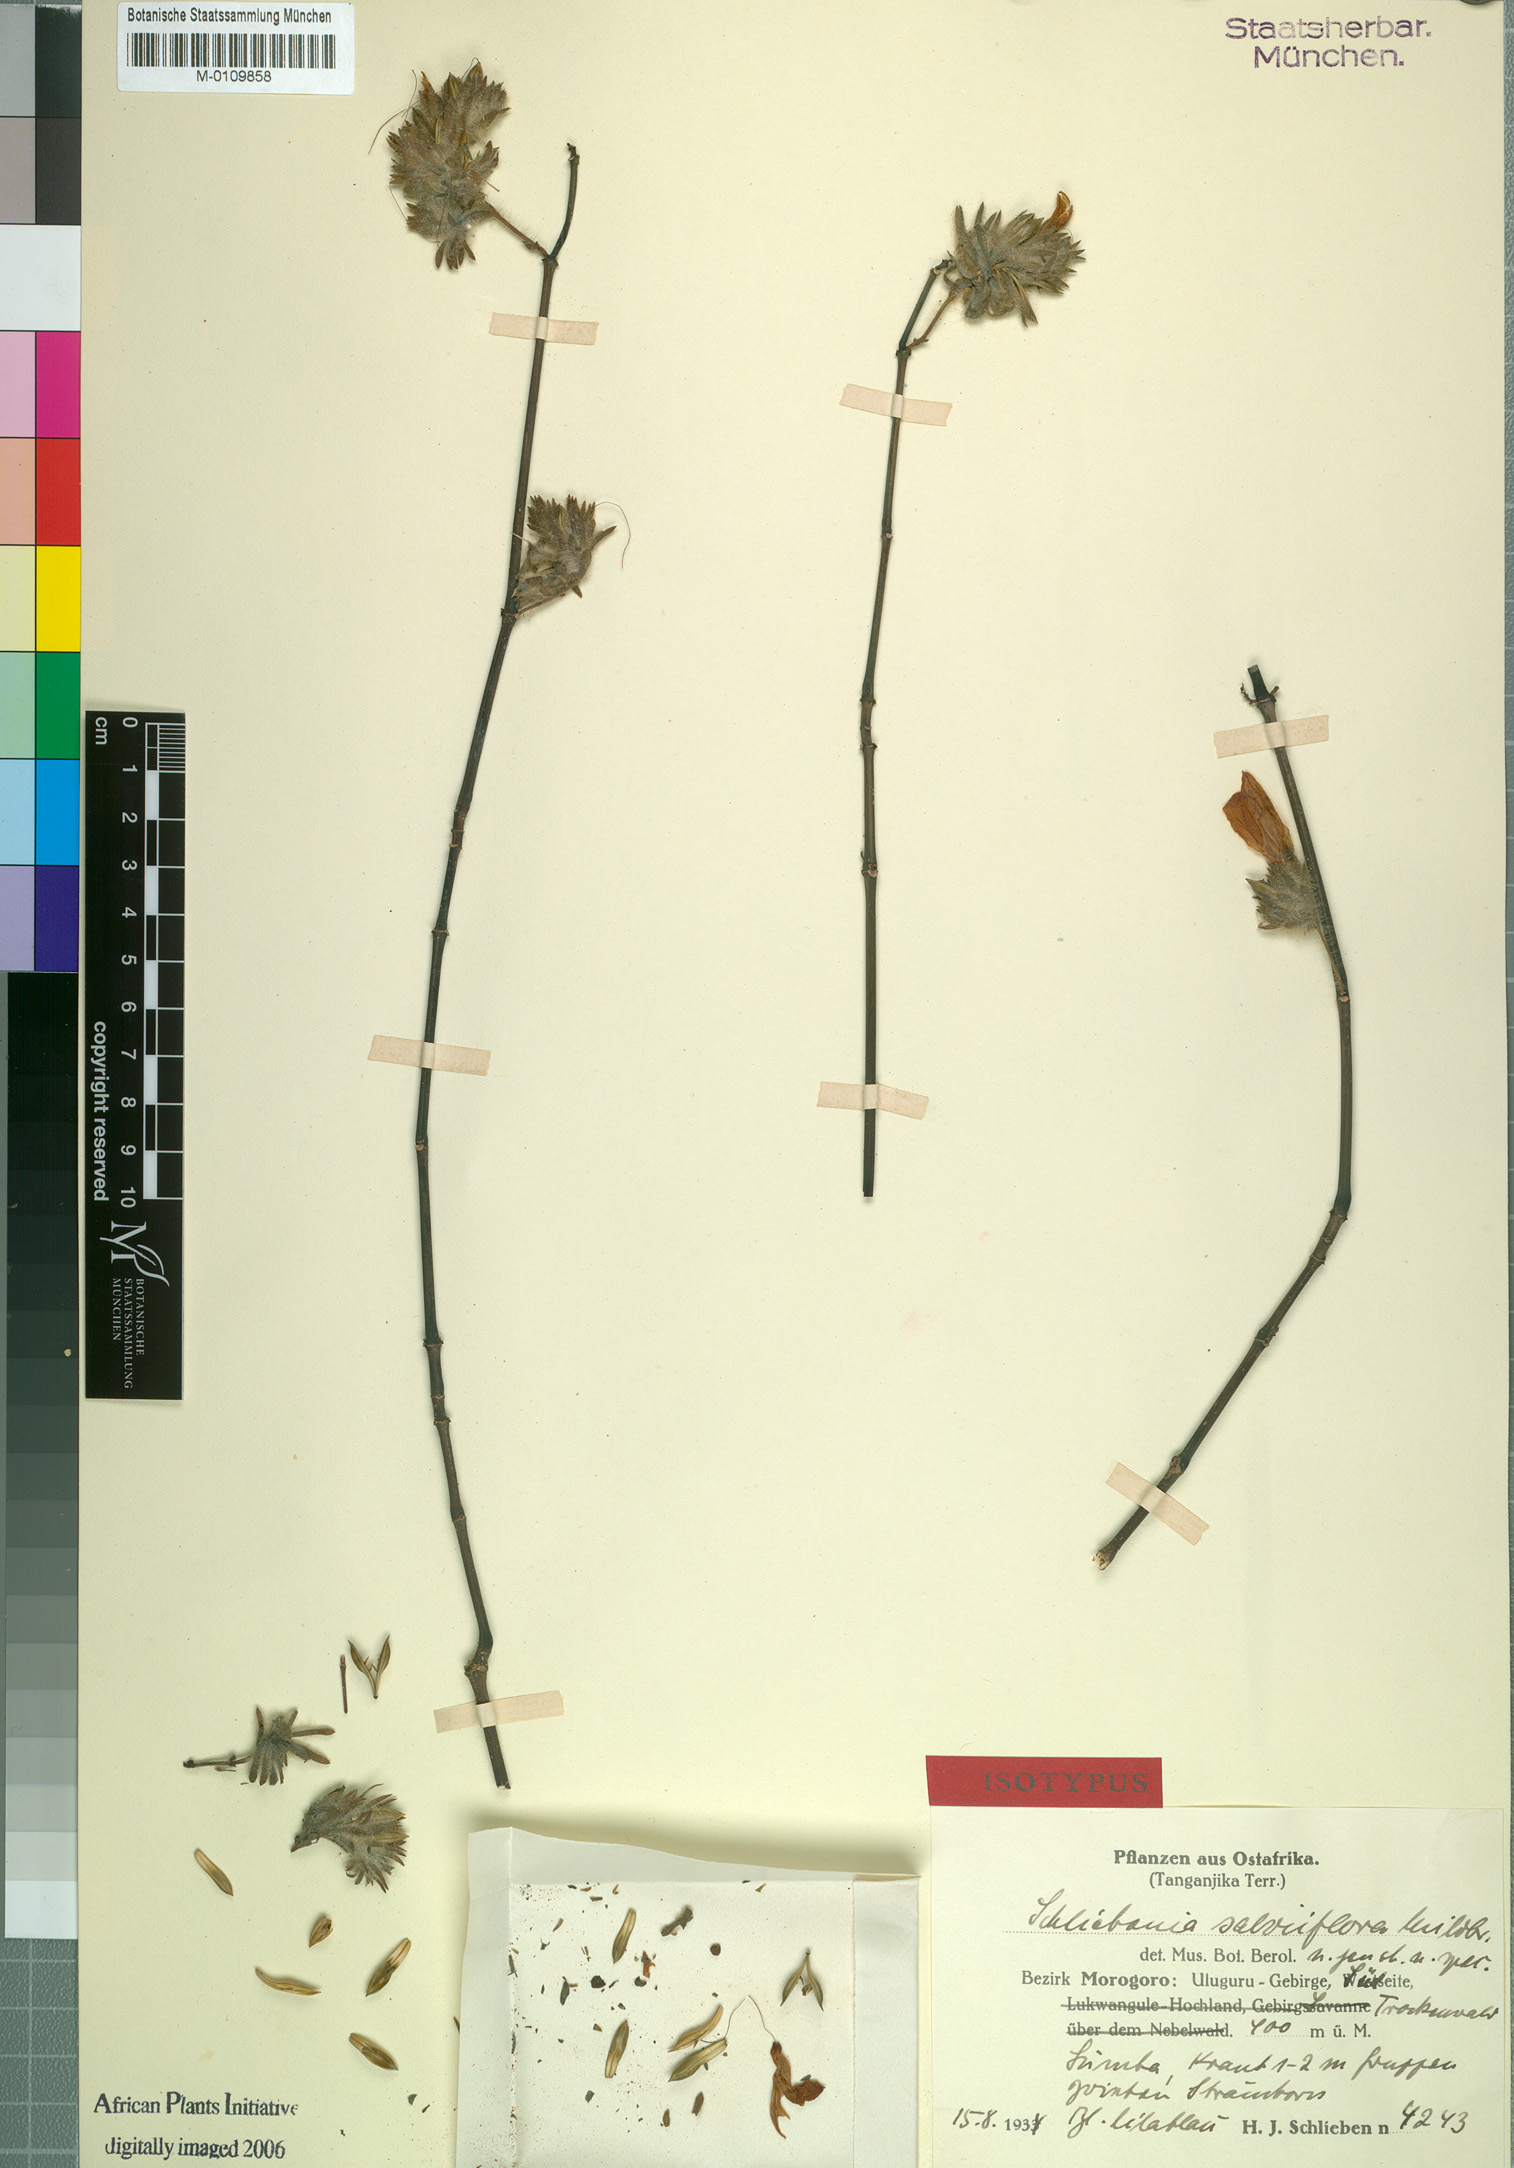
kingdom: Plantae
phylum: Tracheophyta
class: Magnoliopsida
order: Lamiales
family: Acanthaceae
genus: Isoglossa
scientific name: Isoglossa floribunda
